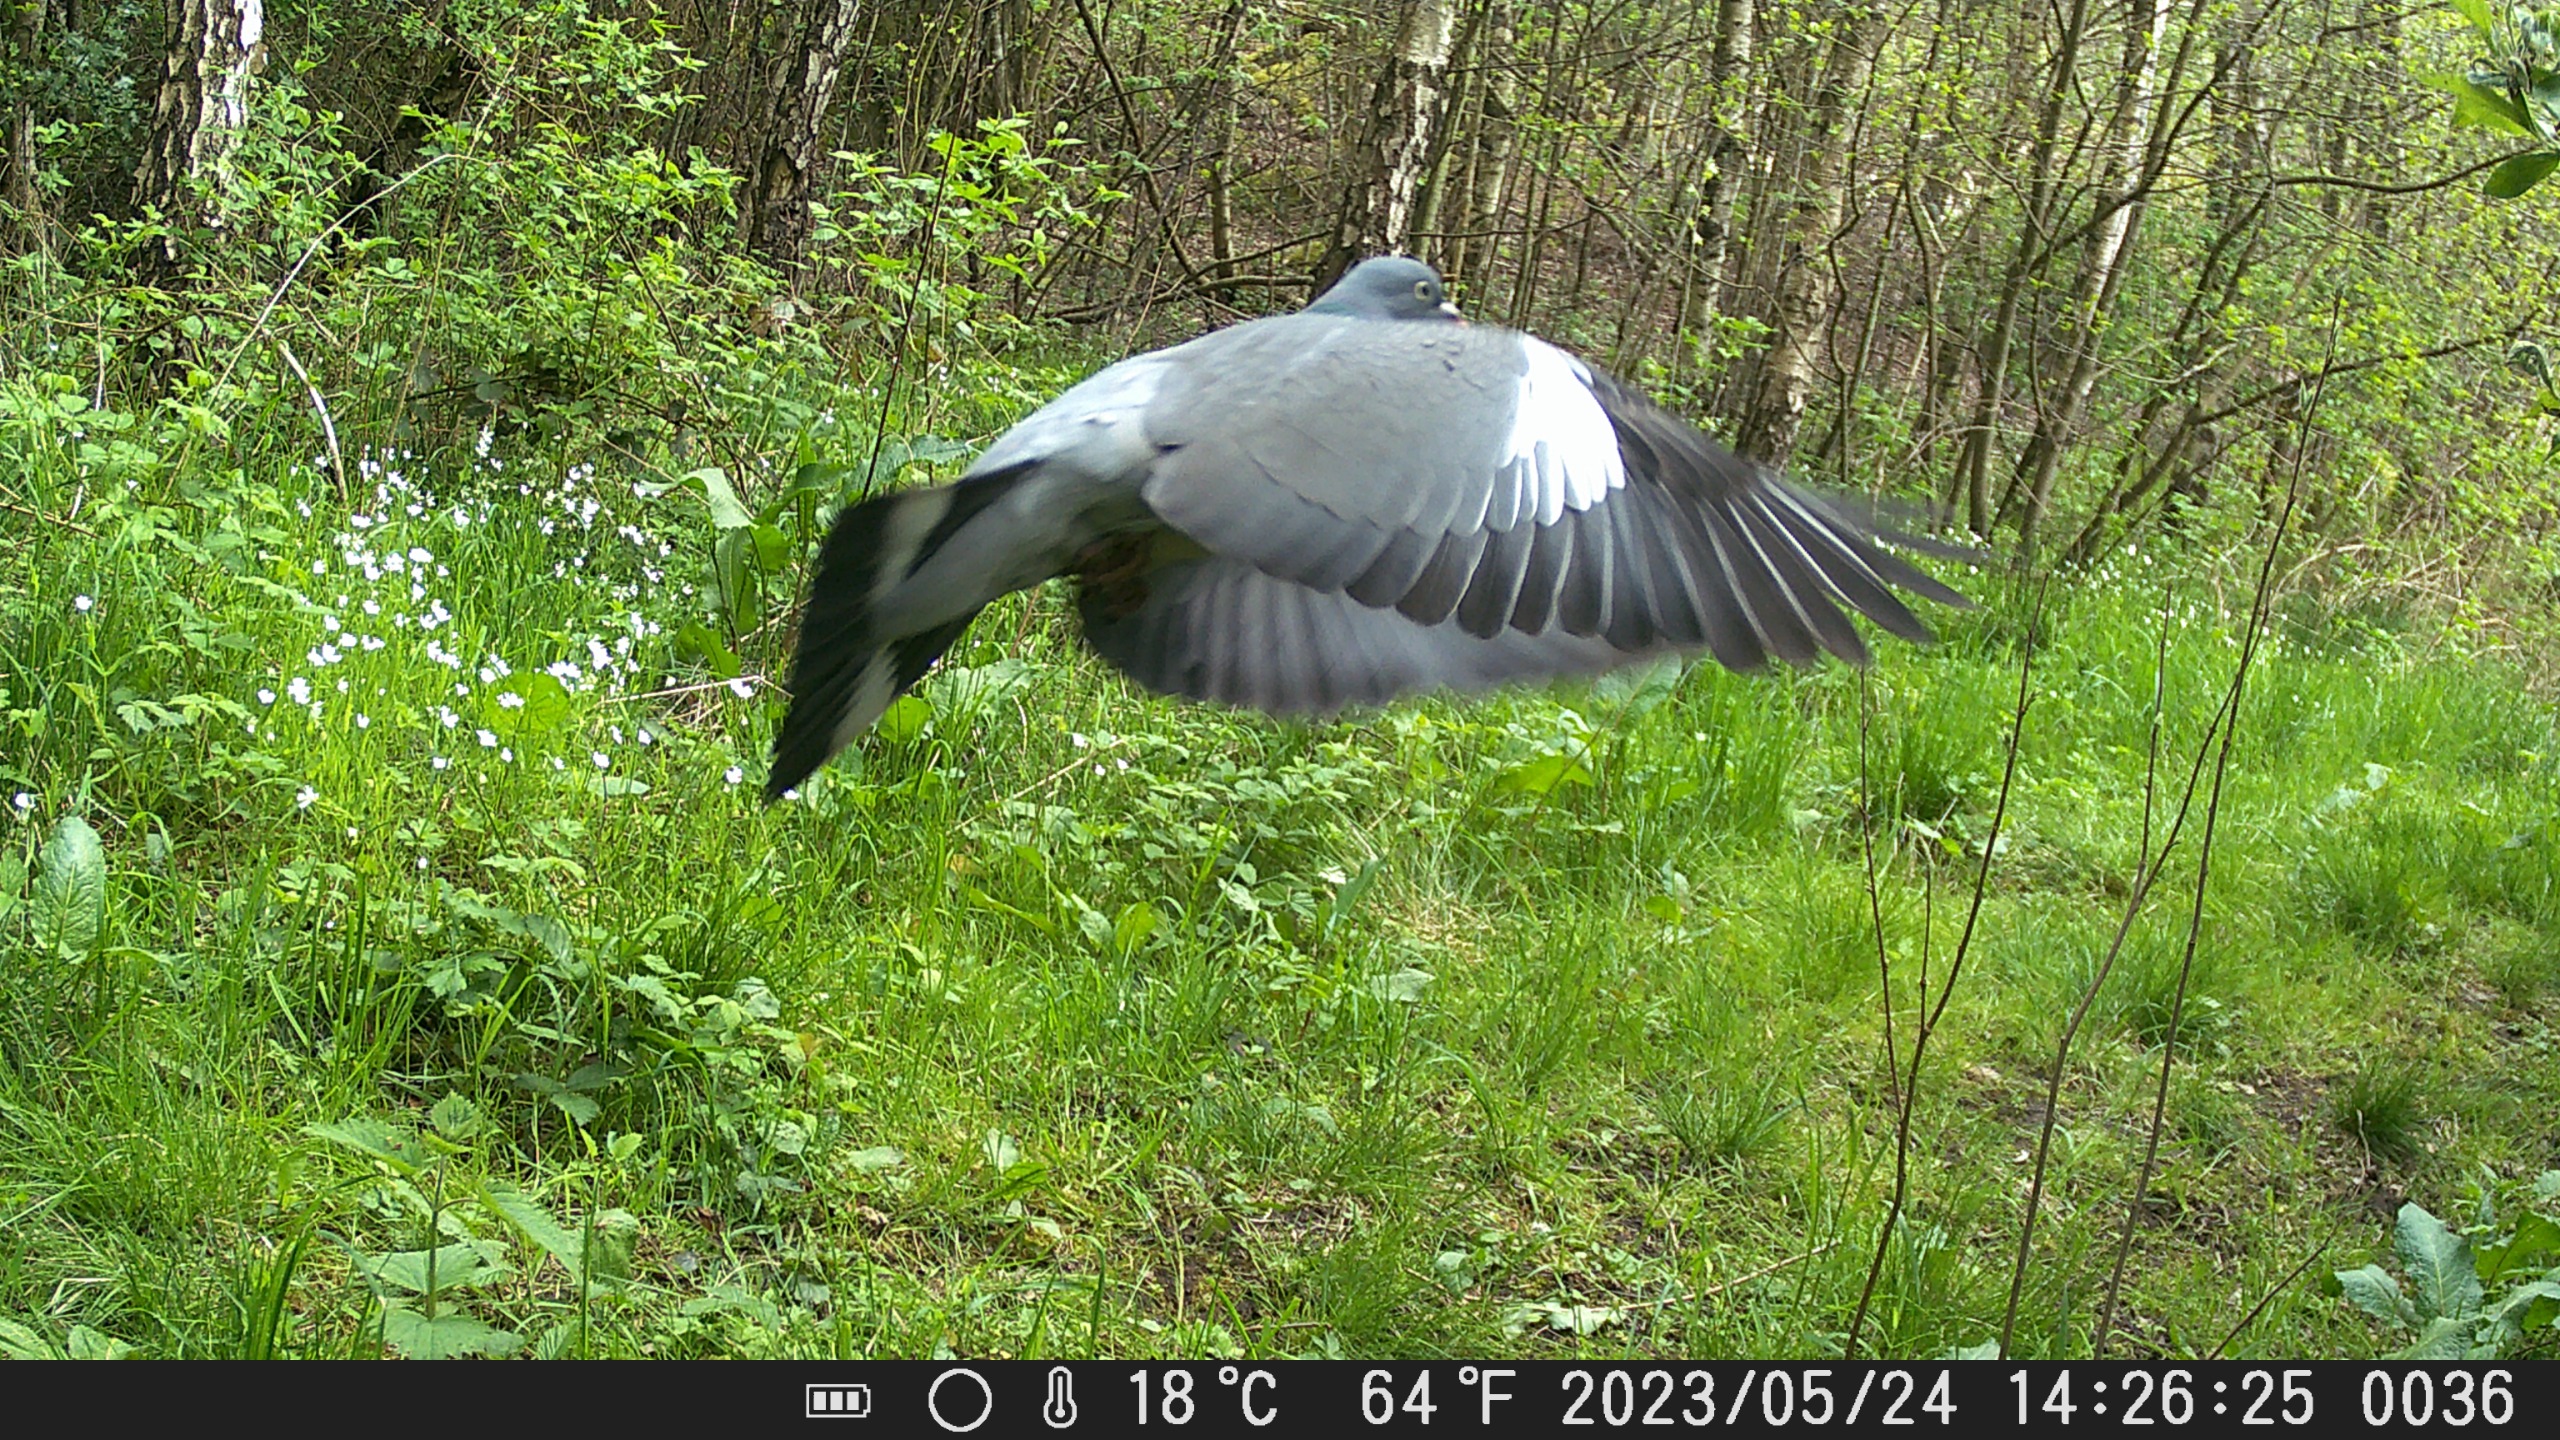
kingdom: Animalia
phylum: Chordata
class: Aves
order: Columbiformes
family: Columbidae
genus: Columba
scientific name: Columba palumbus
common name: Ringdue
